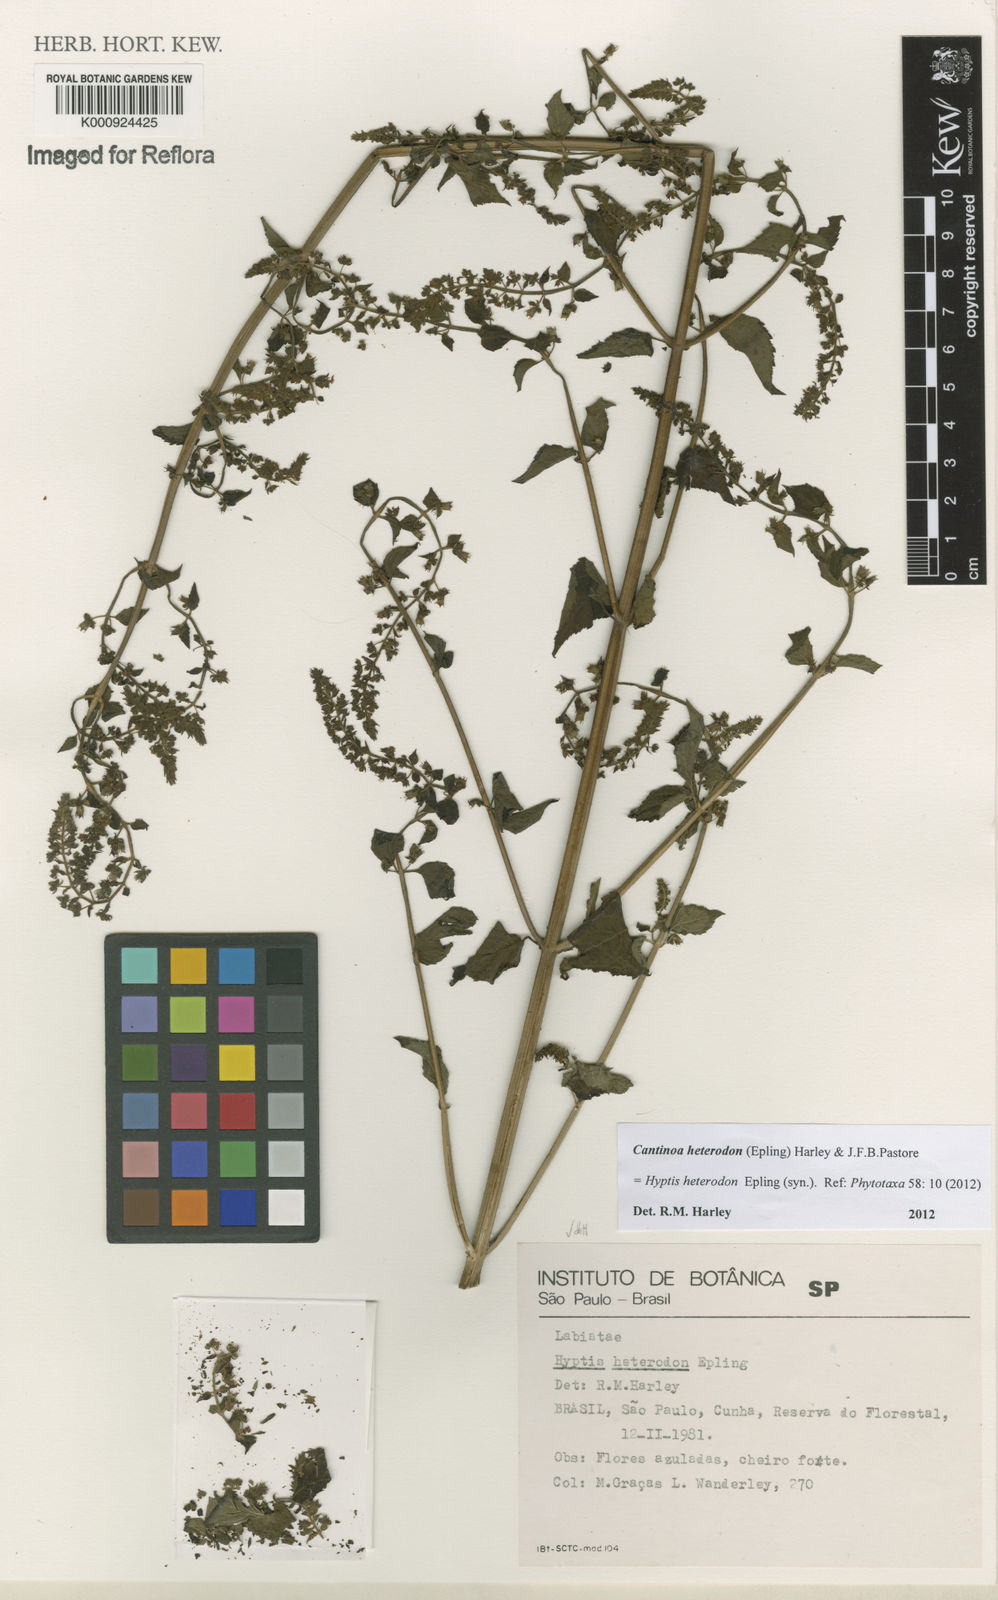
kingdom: Plantae
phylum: Tracheophyta
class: Magnoliopsida
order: Lamiales
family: Lamiaceae
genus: Cantinoa
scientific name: Cantinoa heterodon
